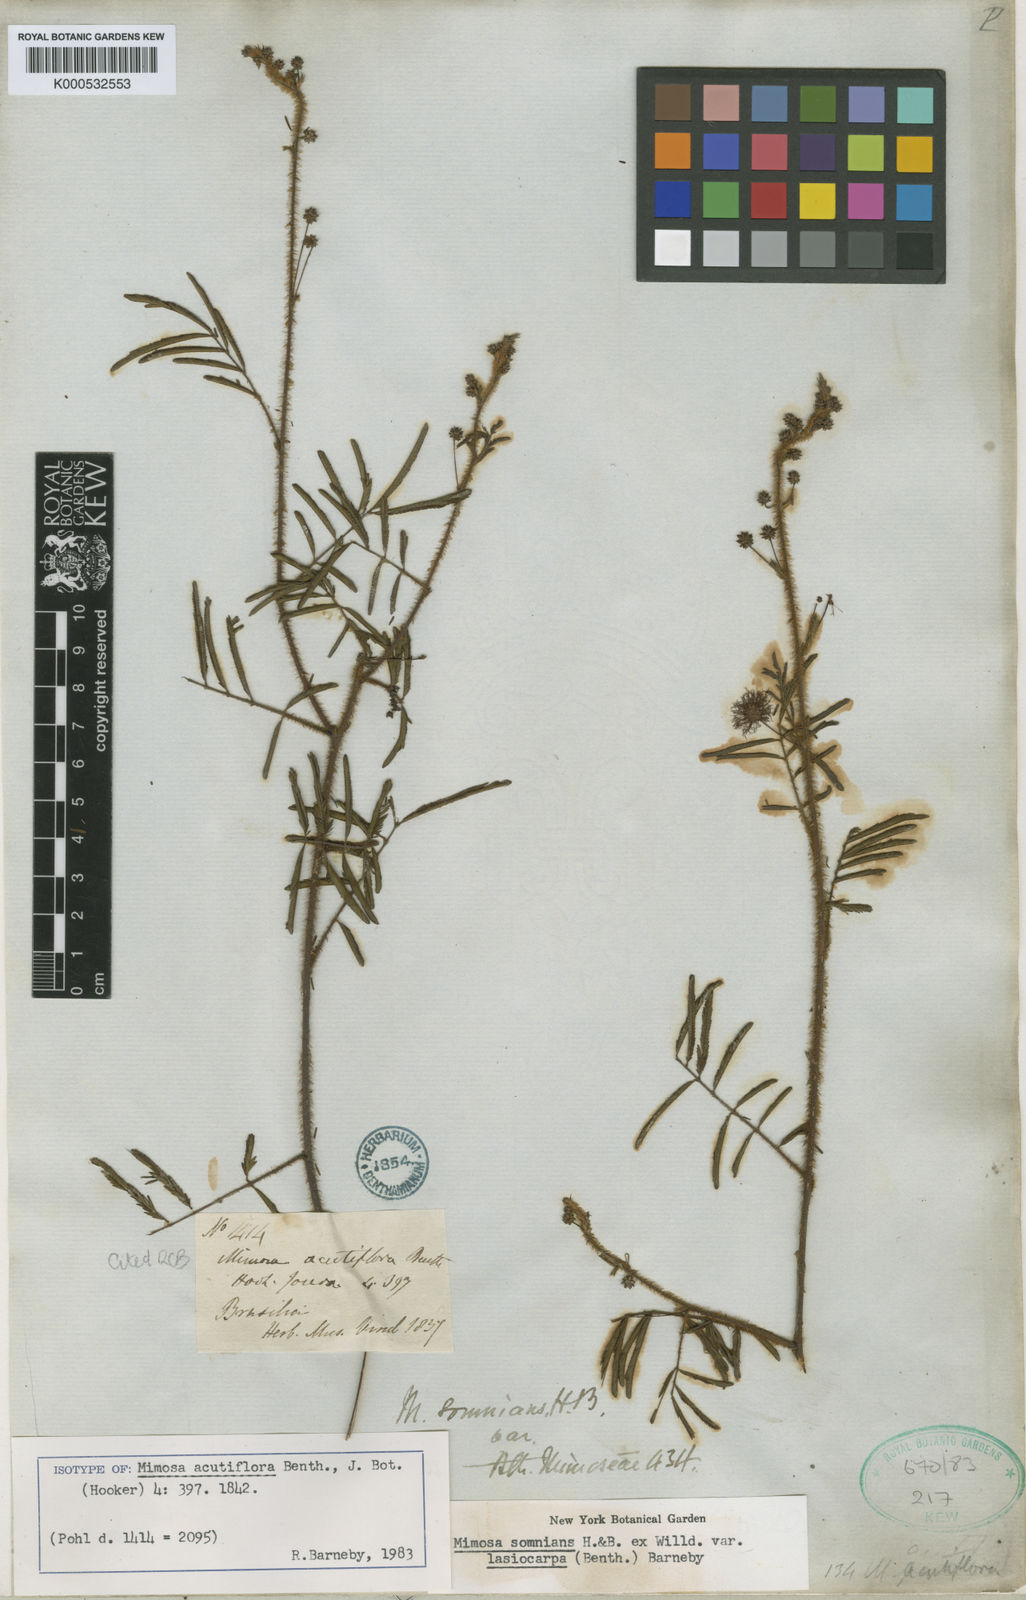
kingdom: Plantae
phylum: Tracheophyta
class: Magnoliopsida
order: Fabales
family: Fabaceae
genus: Mimosa
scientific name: Mimosa somnians
